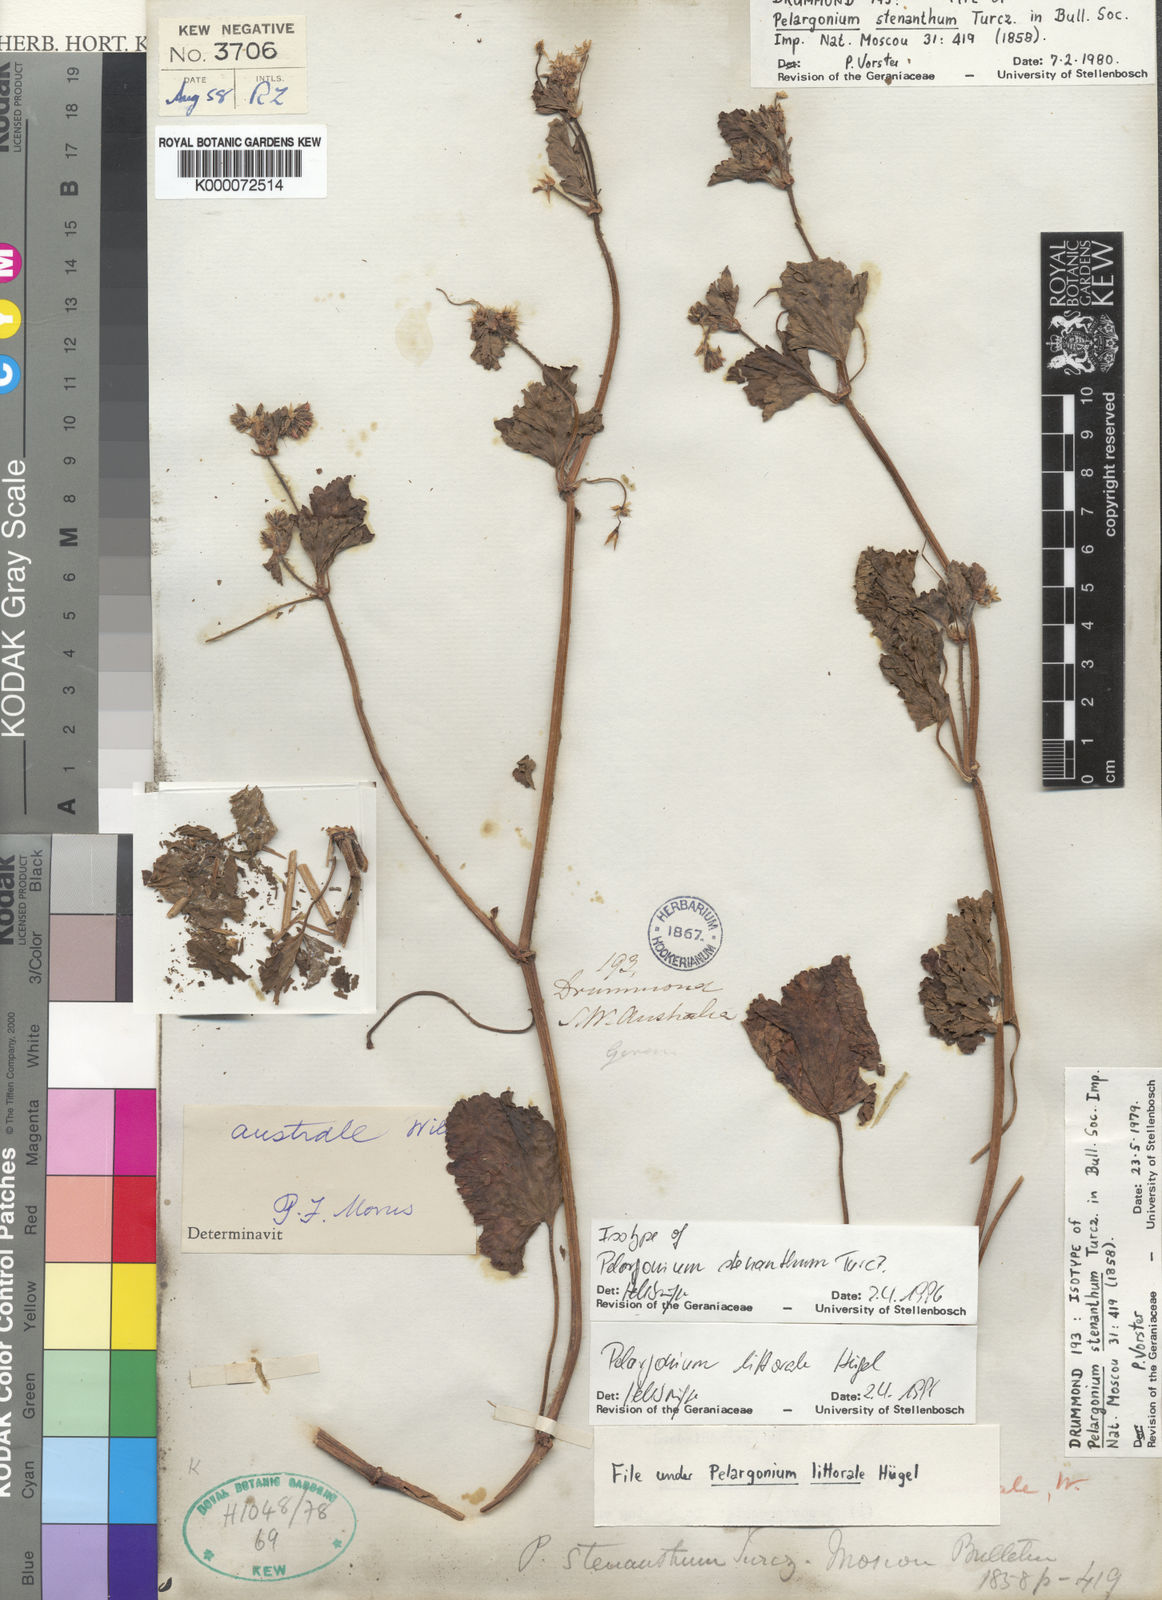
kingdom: Plantae
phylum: Tracheophyta
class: Magnoliopsida
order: Geraniales
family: Geraniaceae
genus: Pelargonium
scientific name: Pelargonium
